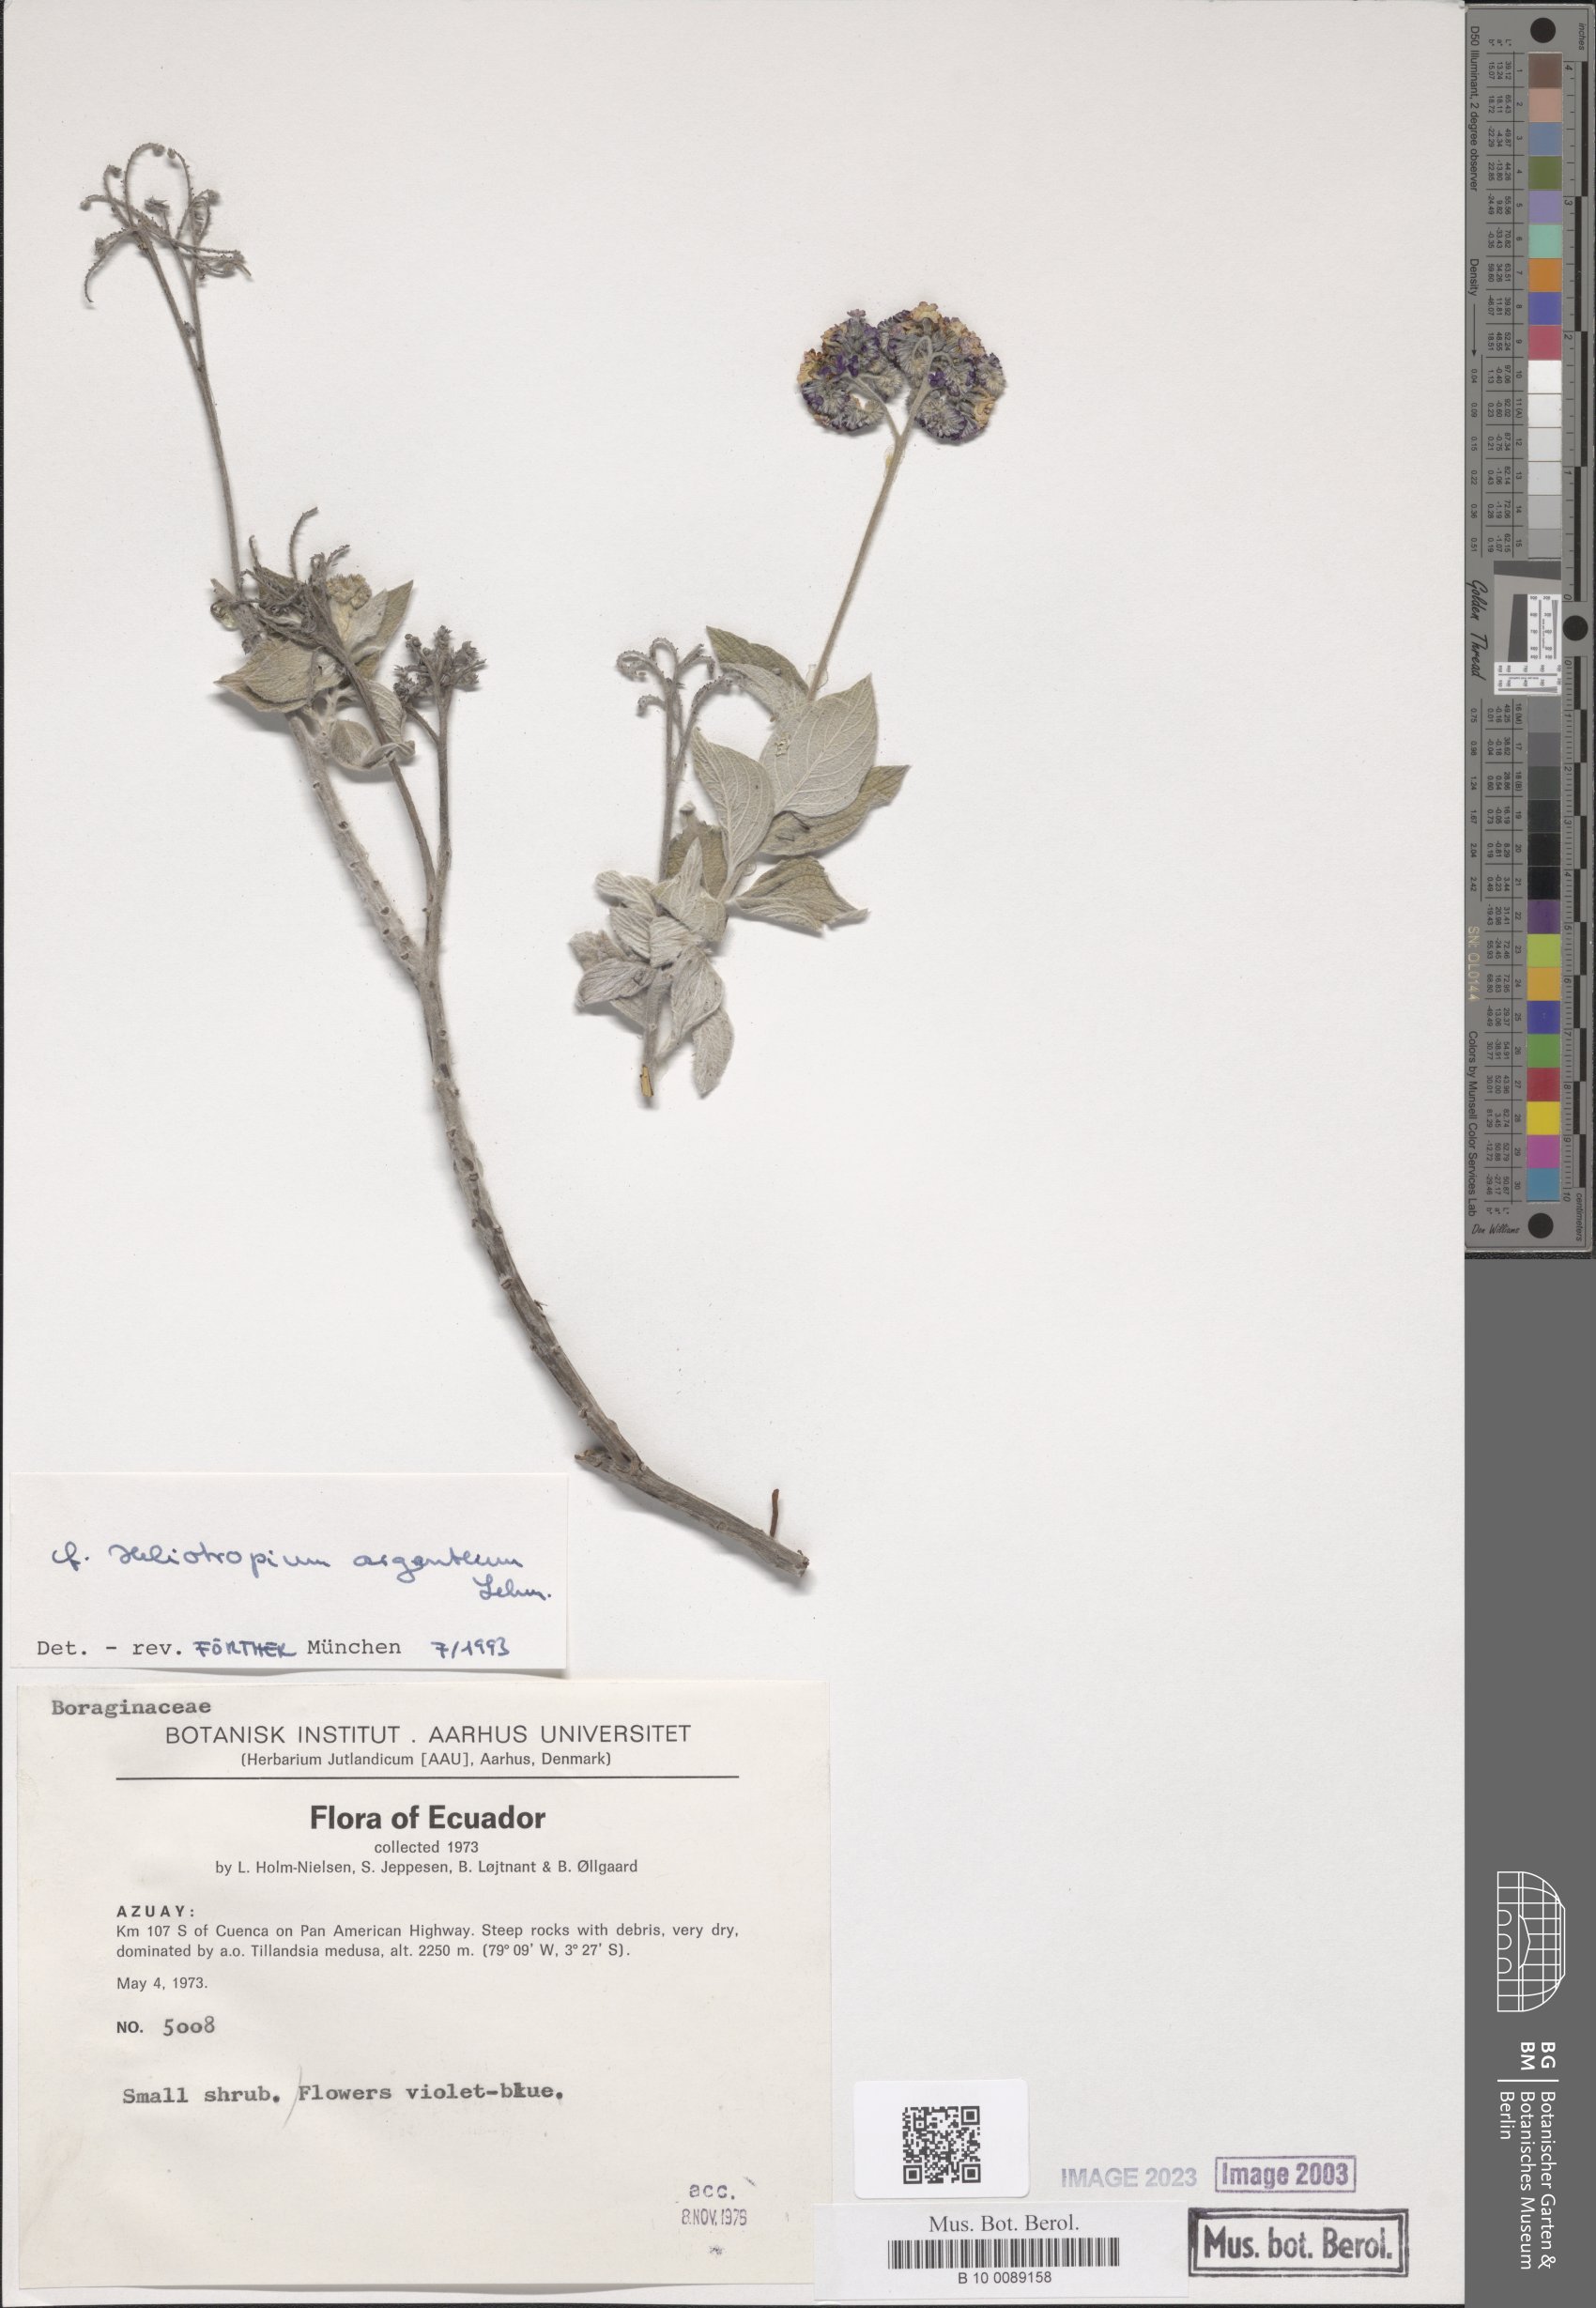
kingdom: Plantae
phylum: Tracheophyta
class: Magnoliopsida
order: Boraginales
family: Heliotropiaceae
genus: Heliotropium
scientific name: Heliotropium argenteum
